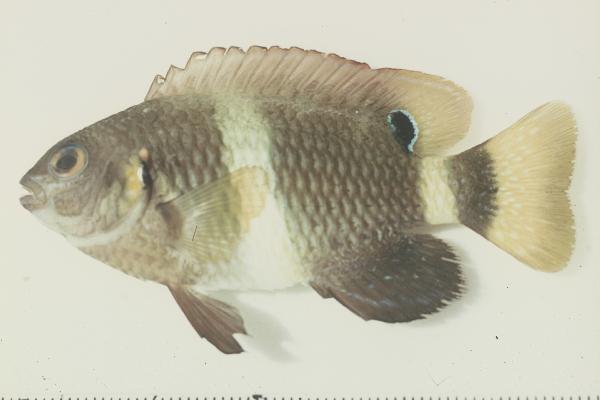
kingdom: Animalia
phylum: Chordata
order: Perciformes
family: Pomacentridae
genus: Chrysiptera
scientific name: Chrysiptera brownriggii
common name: Surge demoiselle
